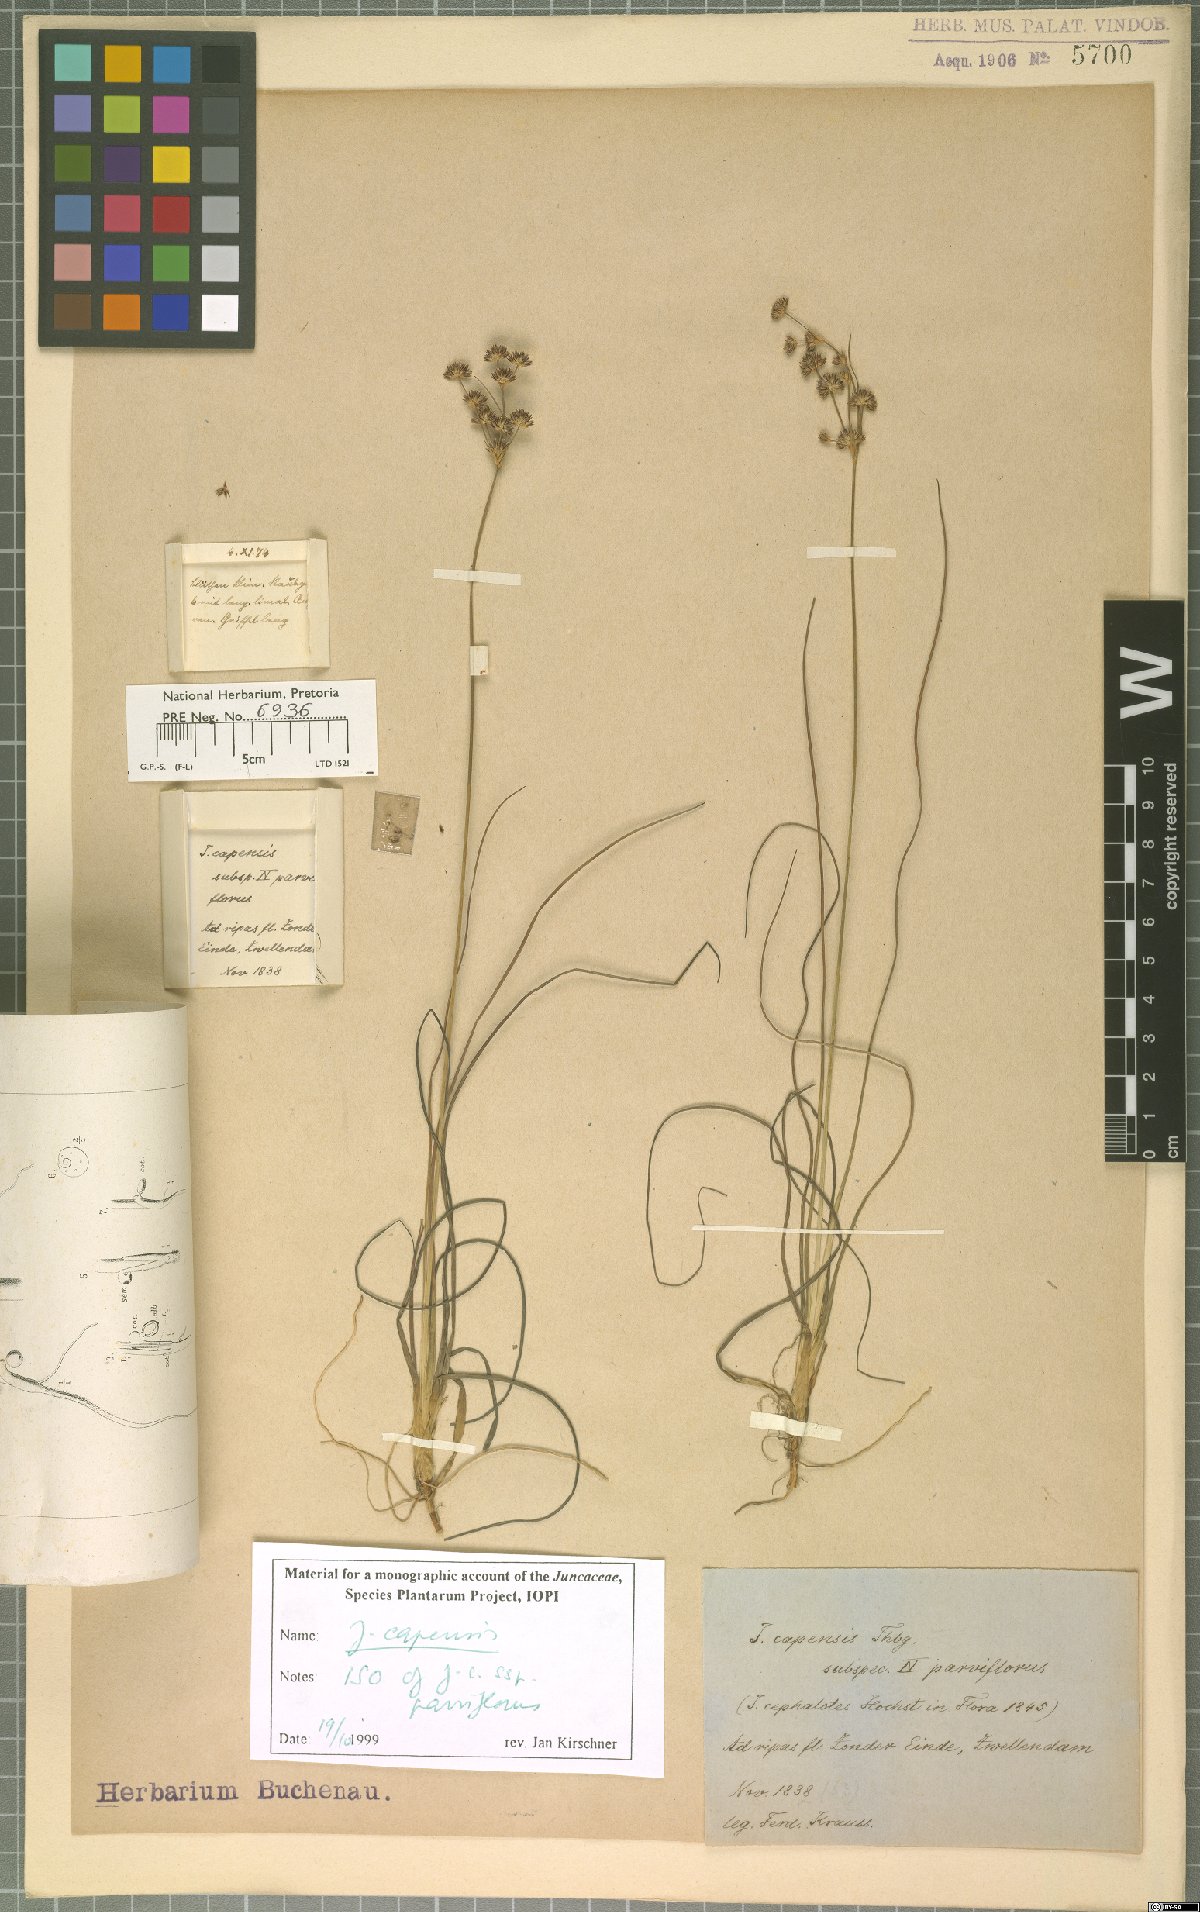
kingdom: Plantae
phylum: Tracheophyta
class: Liliopsida
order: Poales
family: Juncaceae
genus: Juncus
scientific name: Juncus capensis
